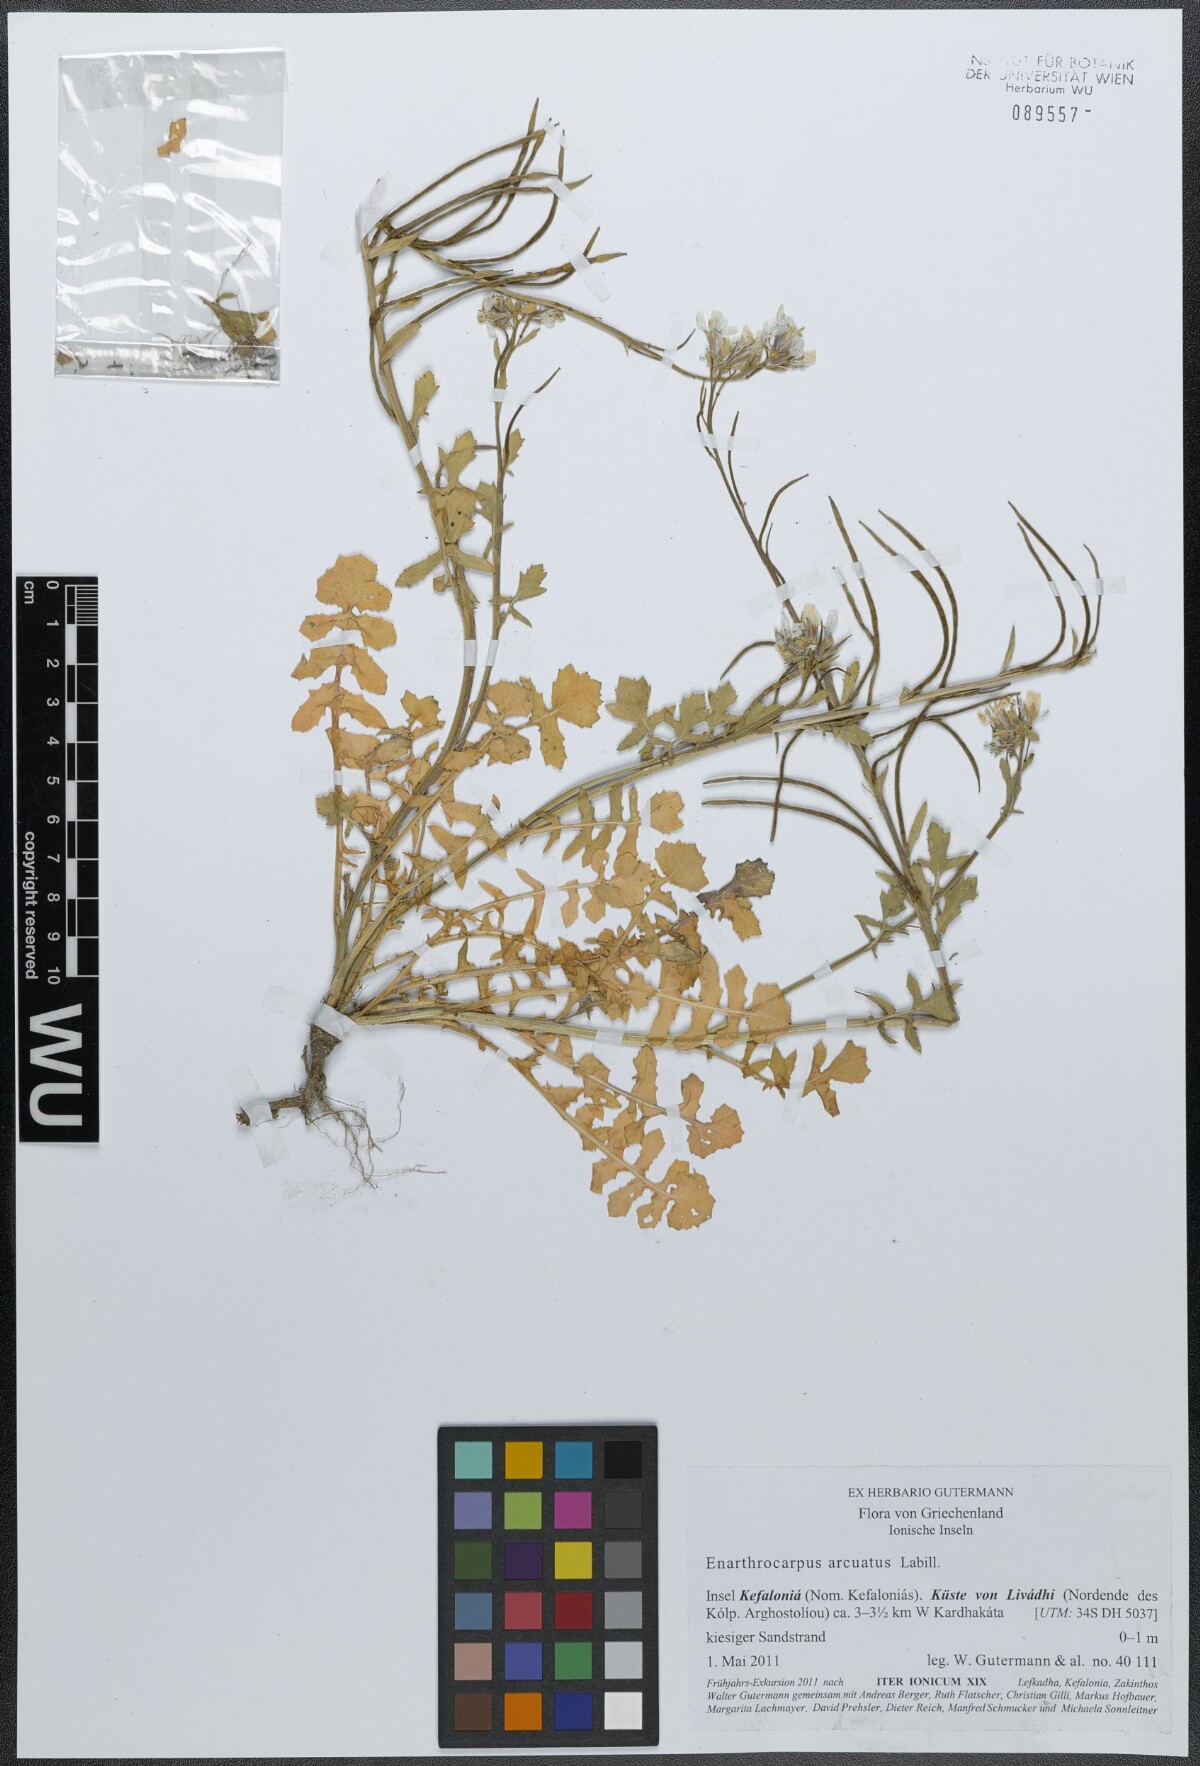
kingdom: Plantae
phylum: Tracheophyta
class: Magnoliopsida
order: Brassicales
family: Brassicaceae
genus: Enarthrocarpus
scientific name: Enarthrocarpus arcuatus
